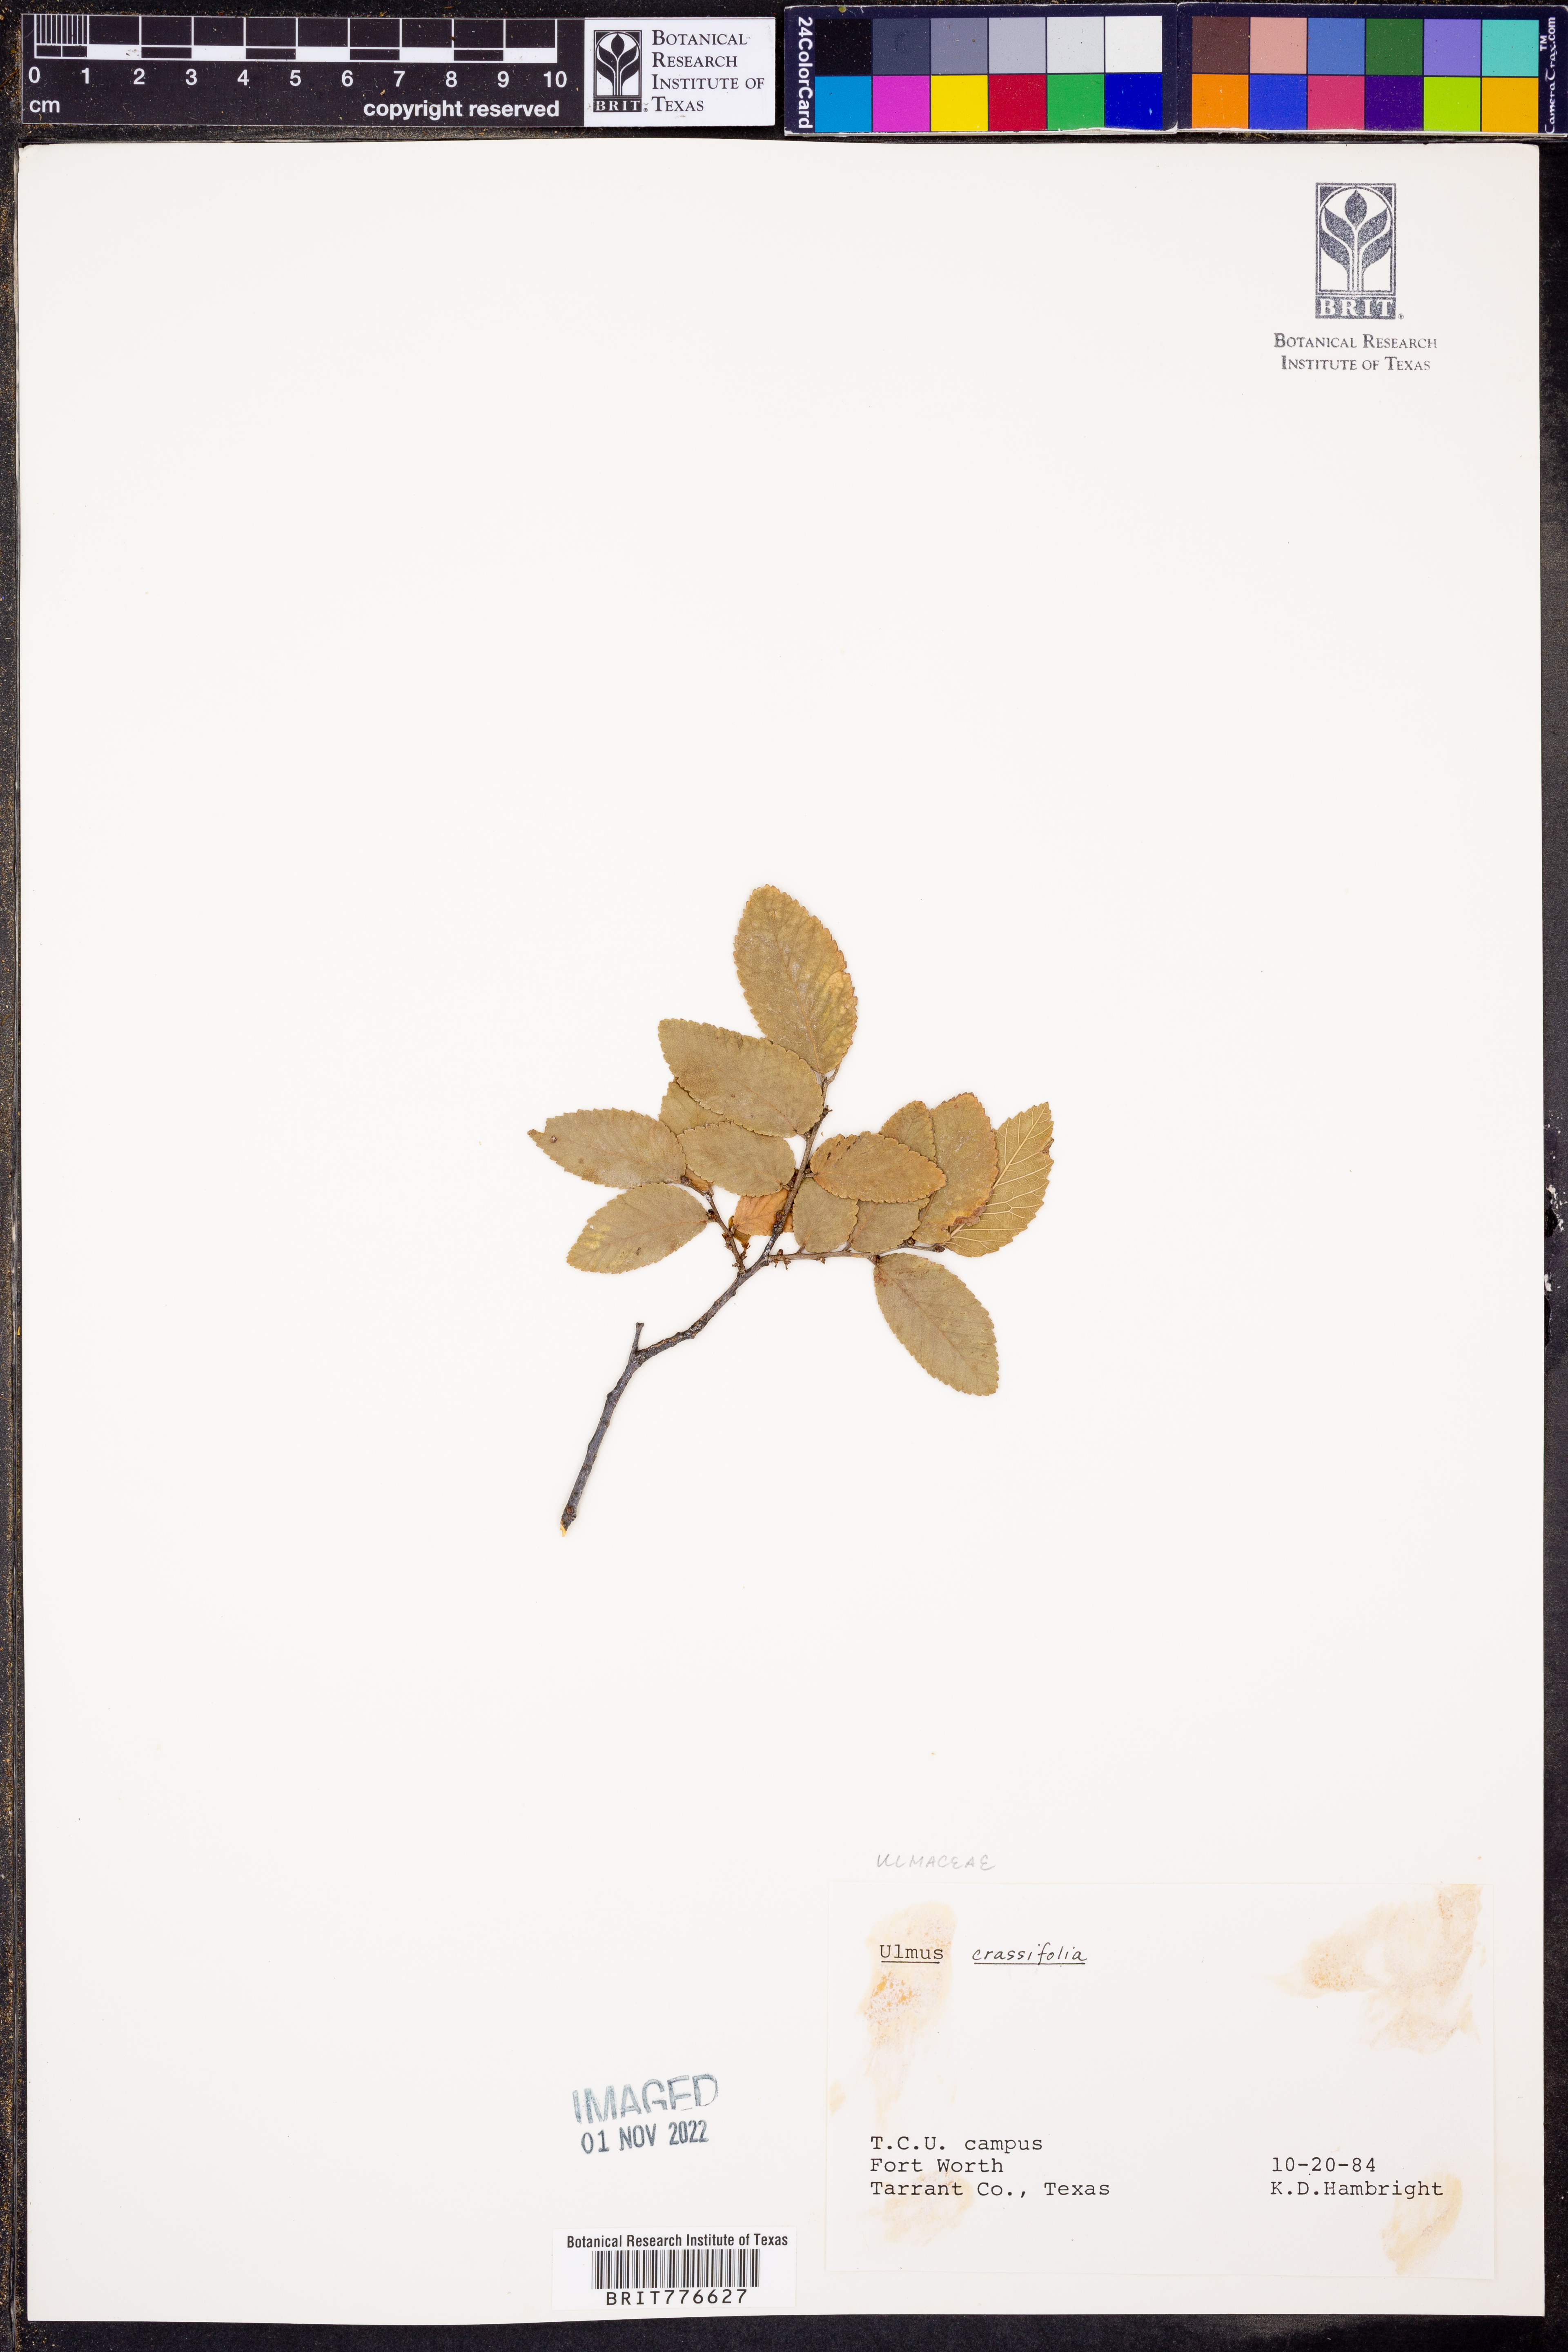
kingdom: Plantae
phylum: Tracheophyta
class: Magnoliopsida
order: Rosales
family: Ulmaceae
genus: Ulmus
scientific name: Ulmus crassifolia
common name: Basket elm
